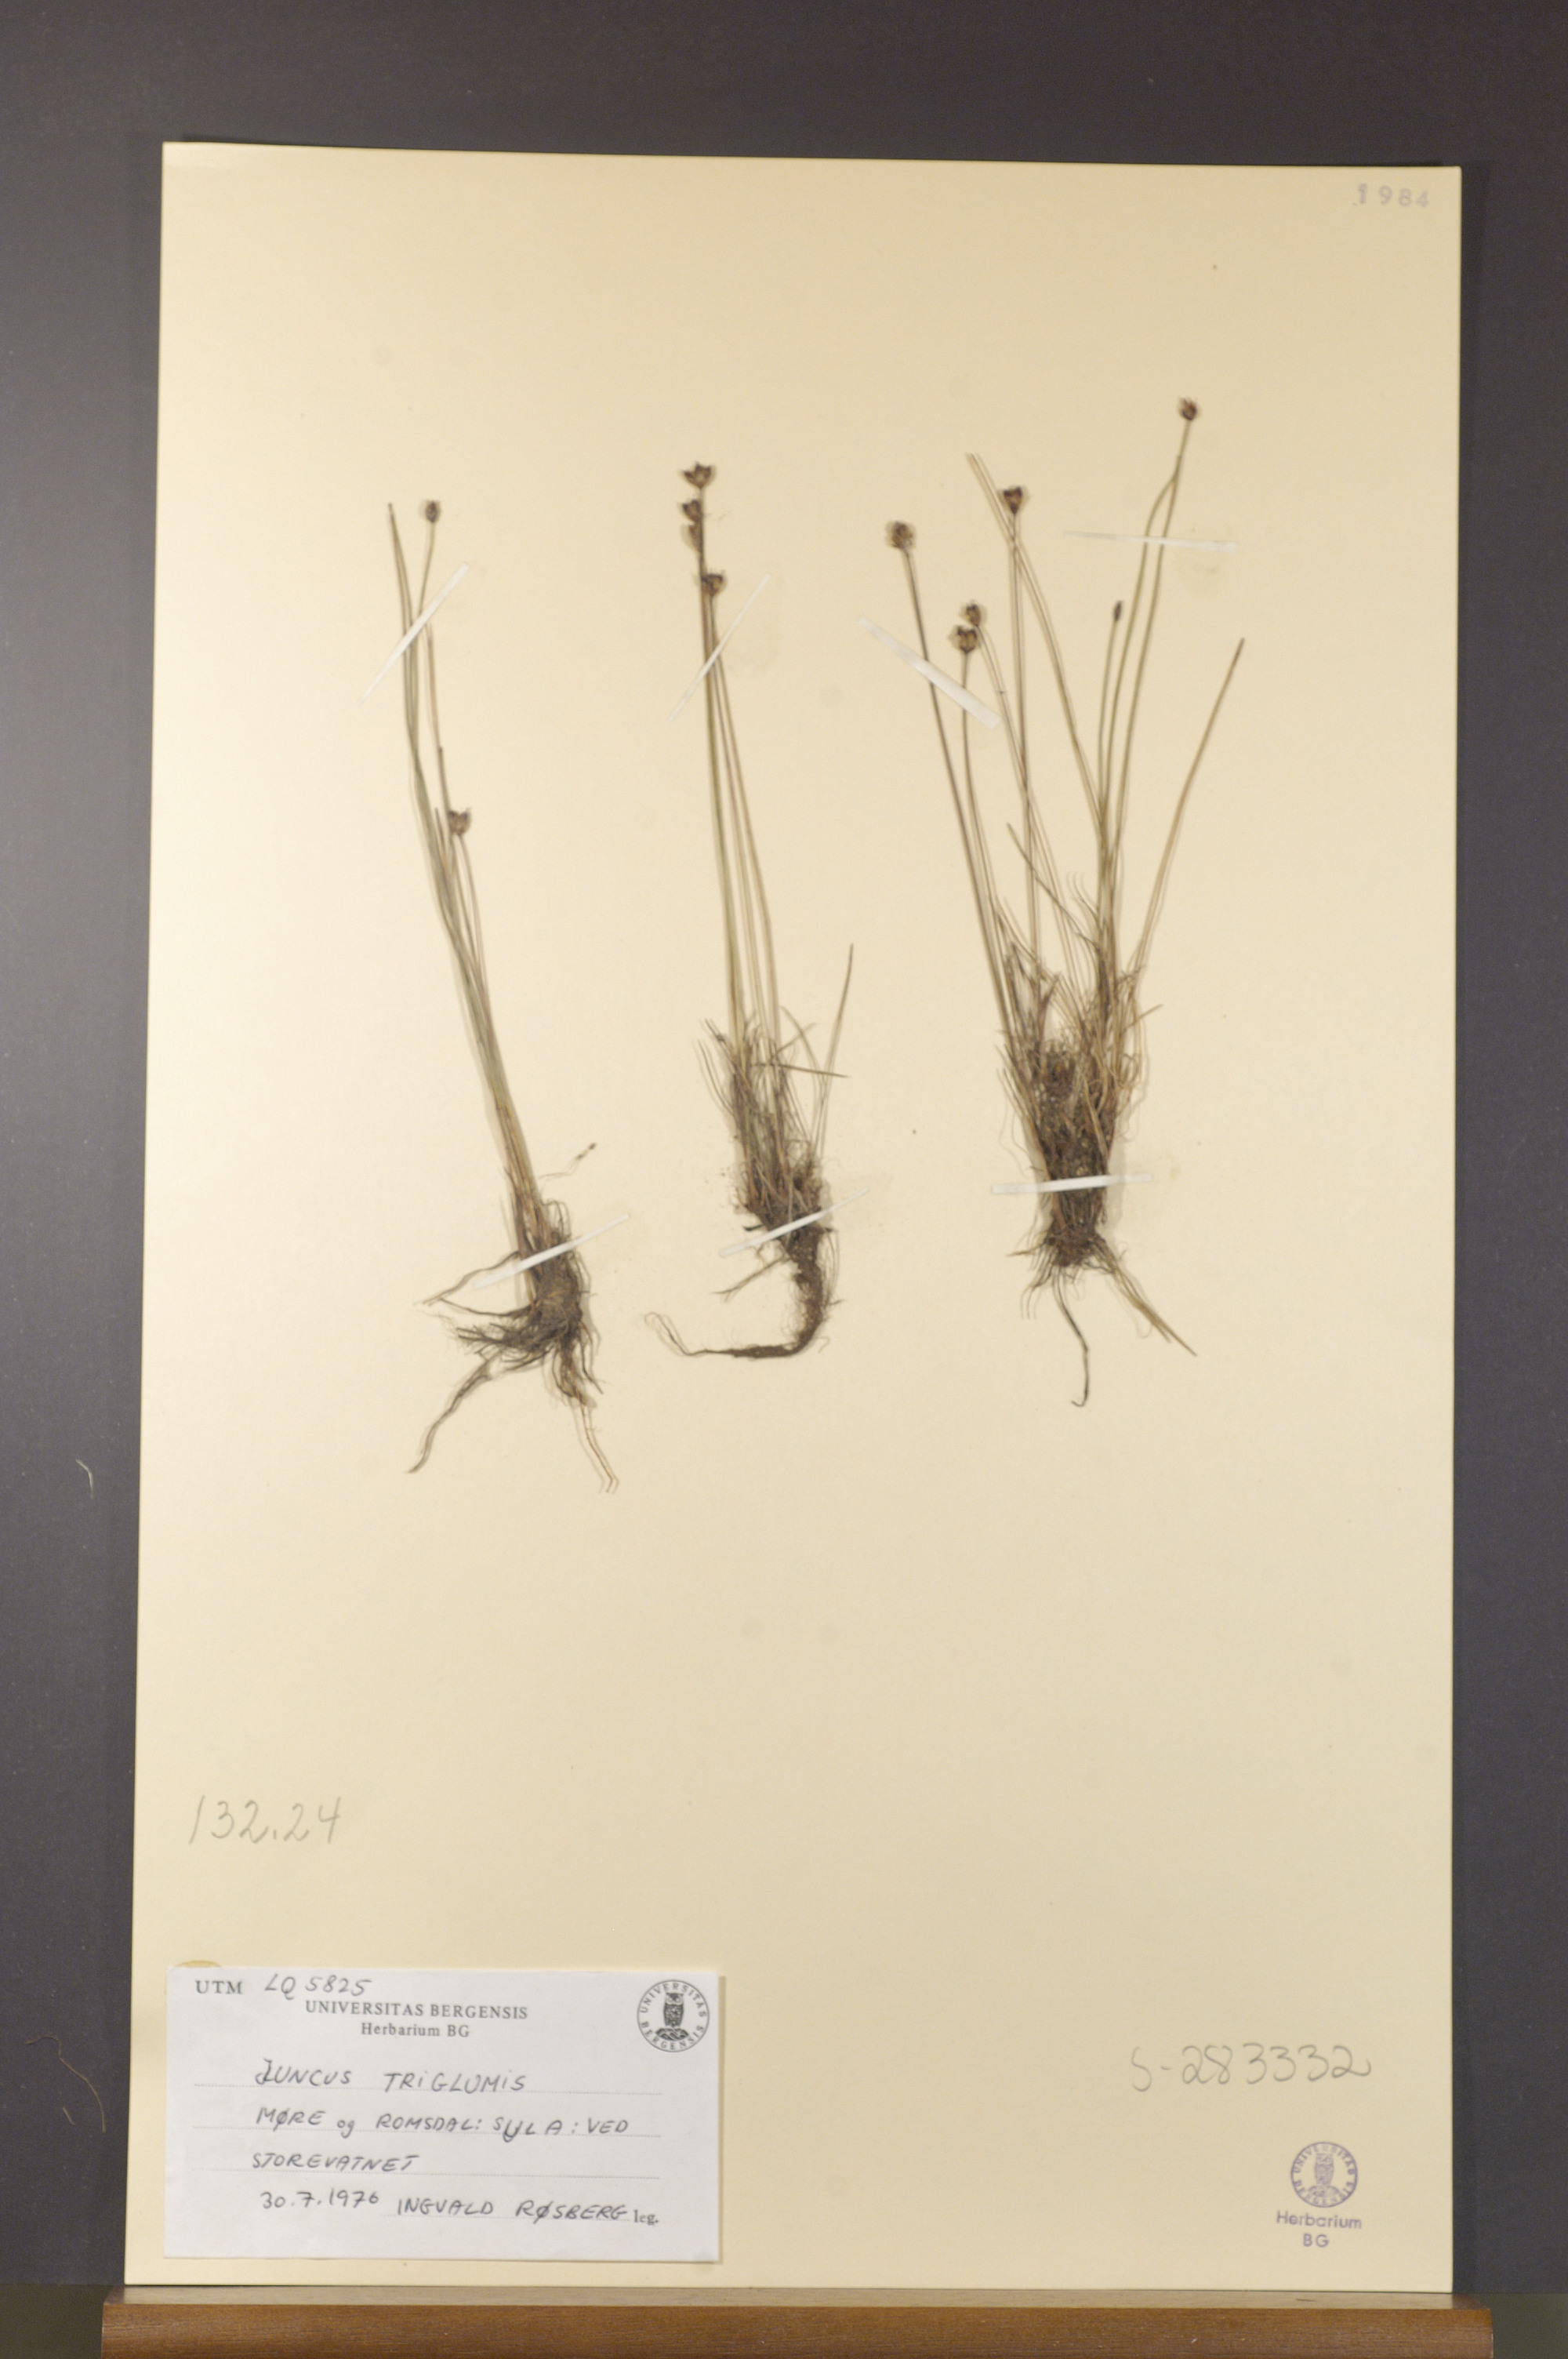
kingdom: Plantae
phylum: Tracheophyta
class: Liliopsida
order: Poales
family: Juncaceae
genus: Juncus
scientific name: Juncus triglumis
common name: Three-flowered rush
